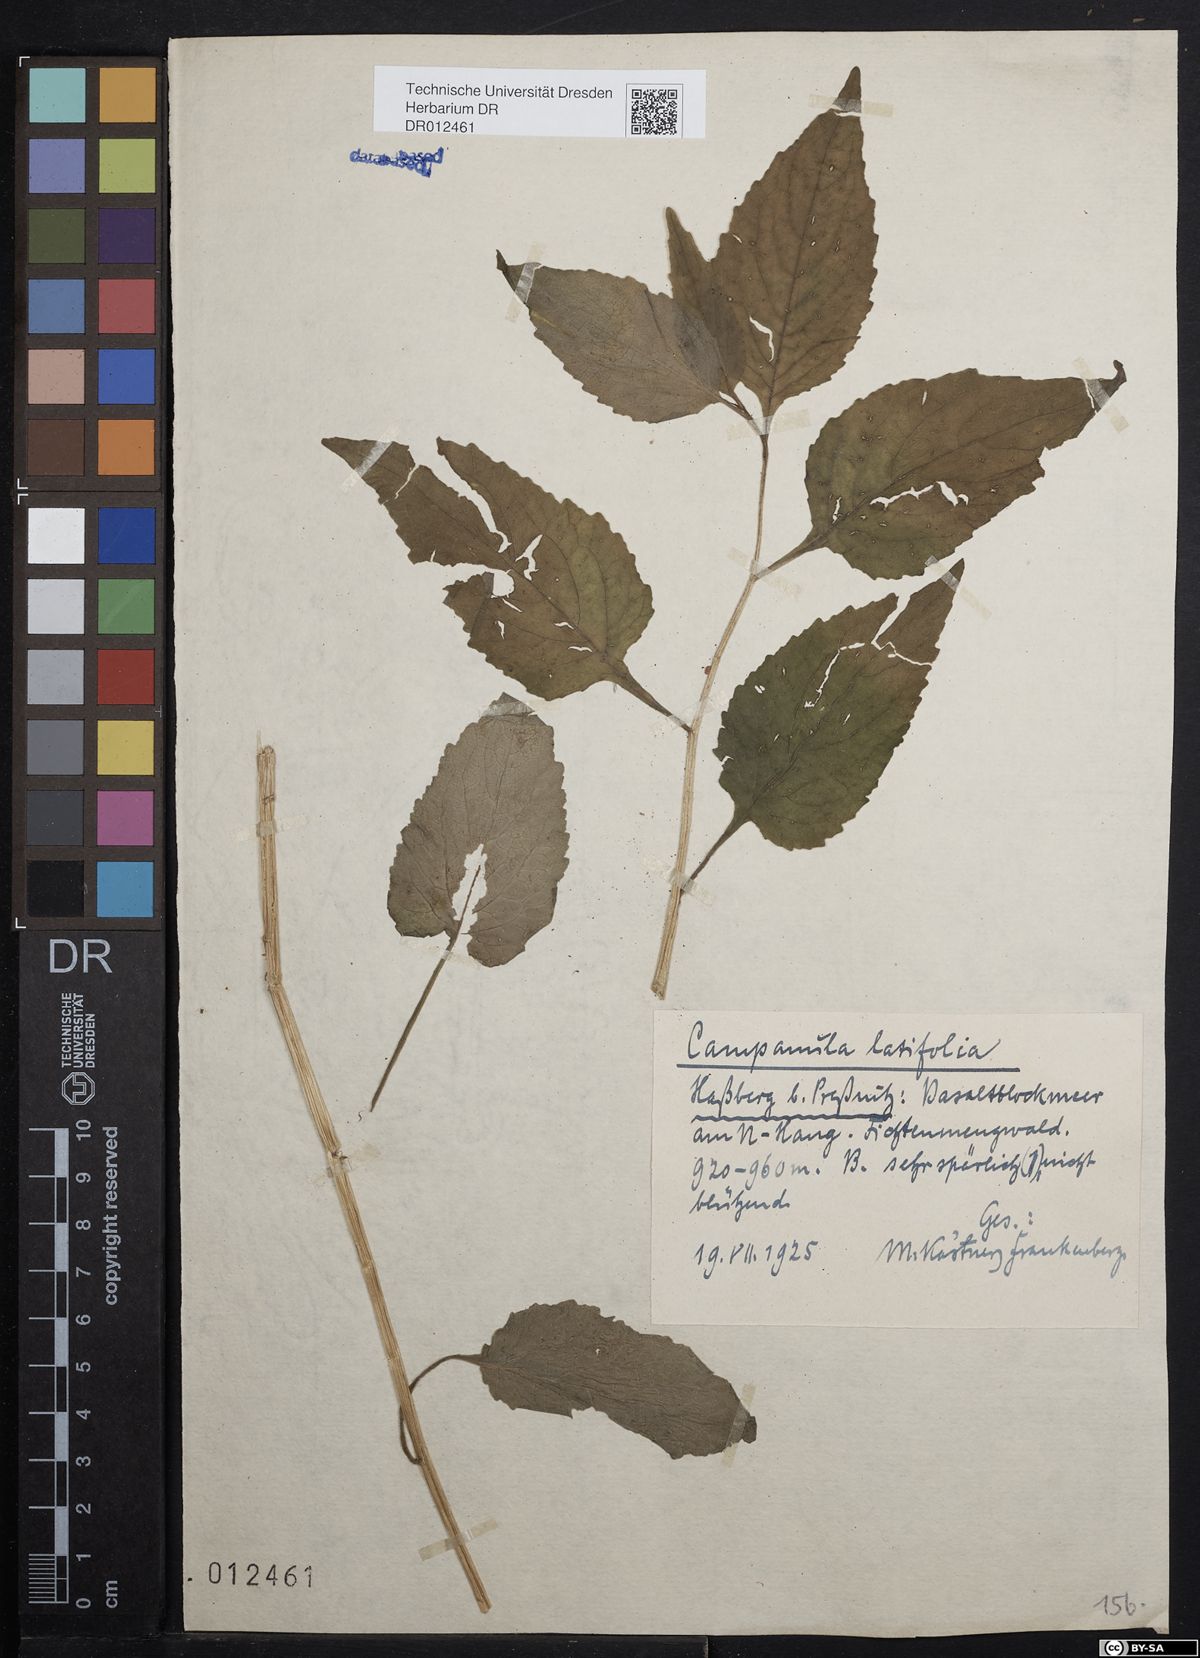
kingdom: Plantae
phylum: Tracheophyta
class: Magnoliopsida
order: Asterales
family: Campanulaceae
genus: Campanula
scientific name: Campanula latifolia
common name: Giant bellflower
